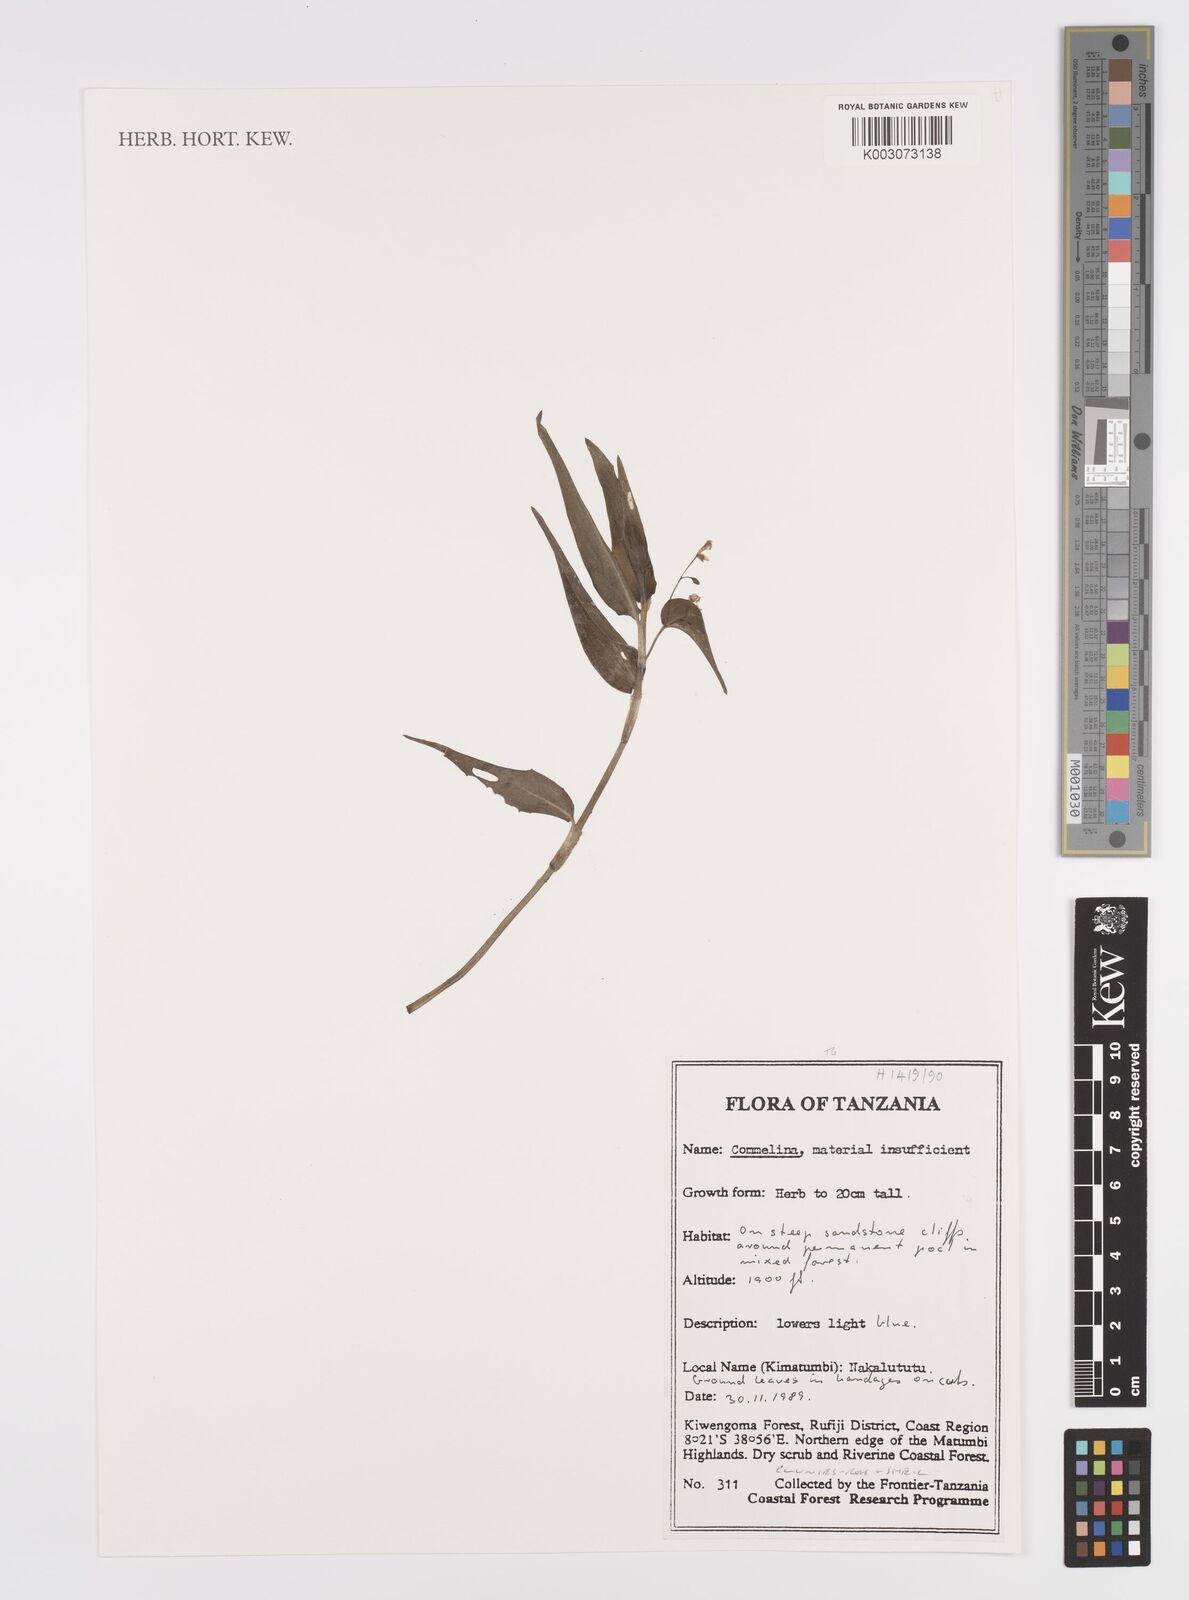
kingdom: Plantae
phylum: Tracheophyta
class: Liliopsida
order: Commelinales
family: Commelinaceae
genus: Commelina
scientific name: Commelina diffusa
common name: Climbing dayflower
